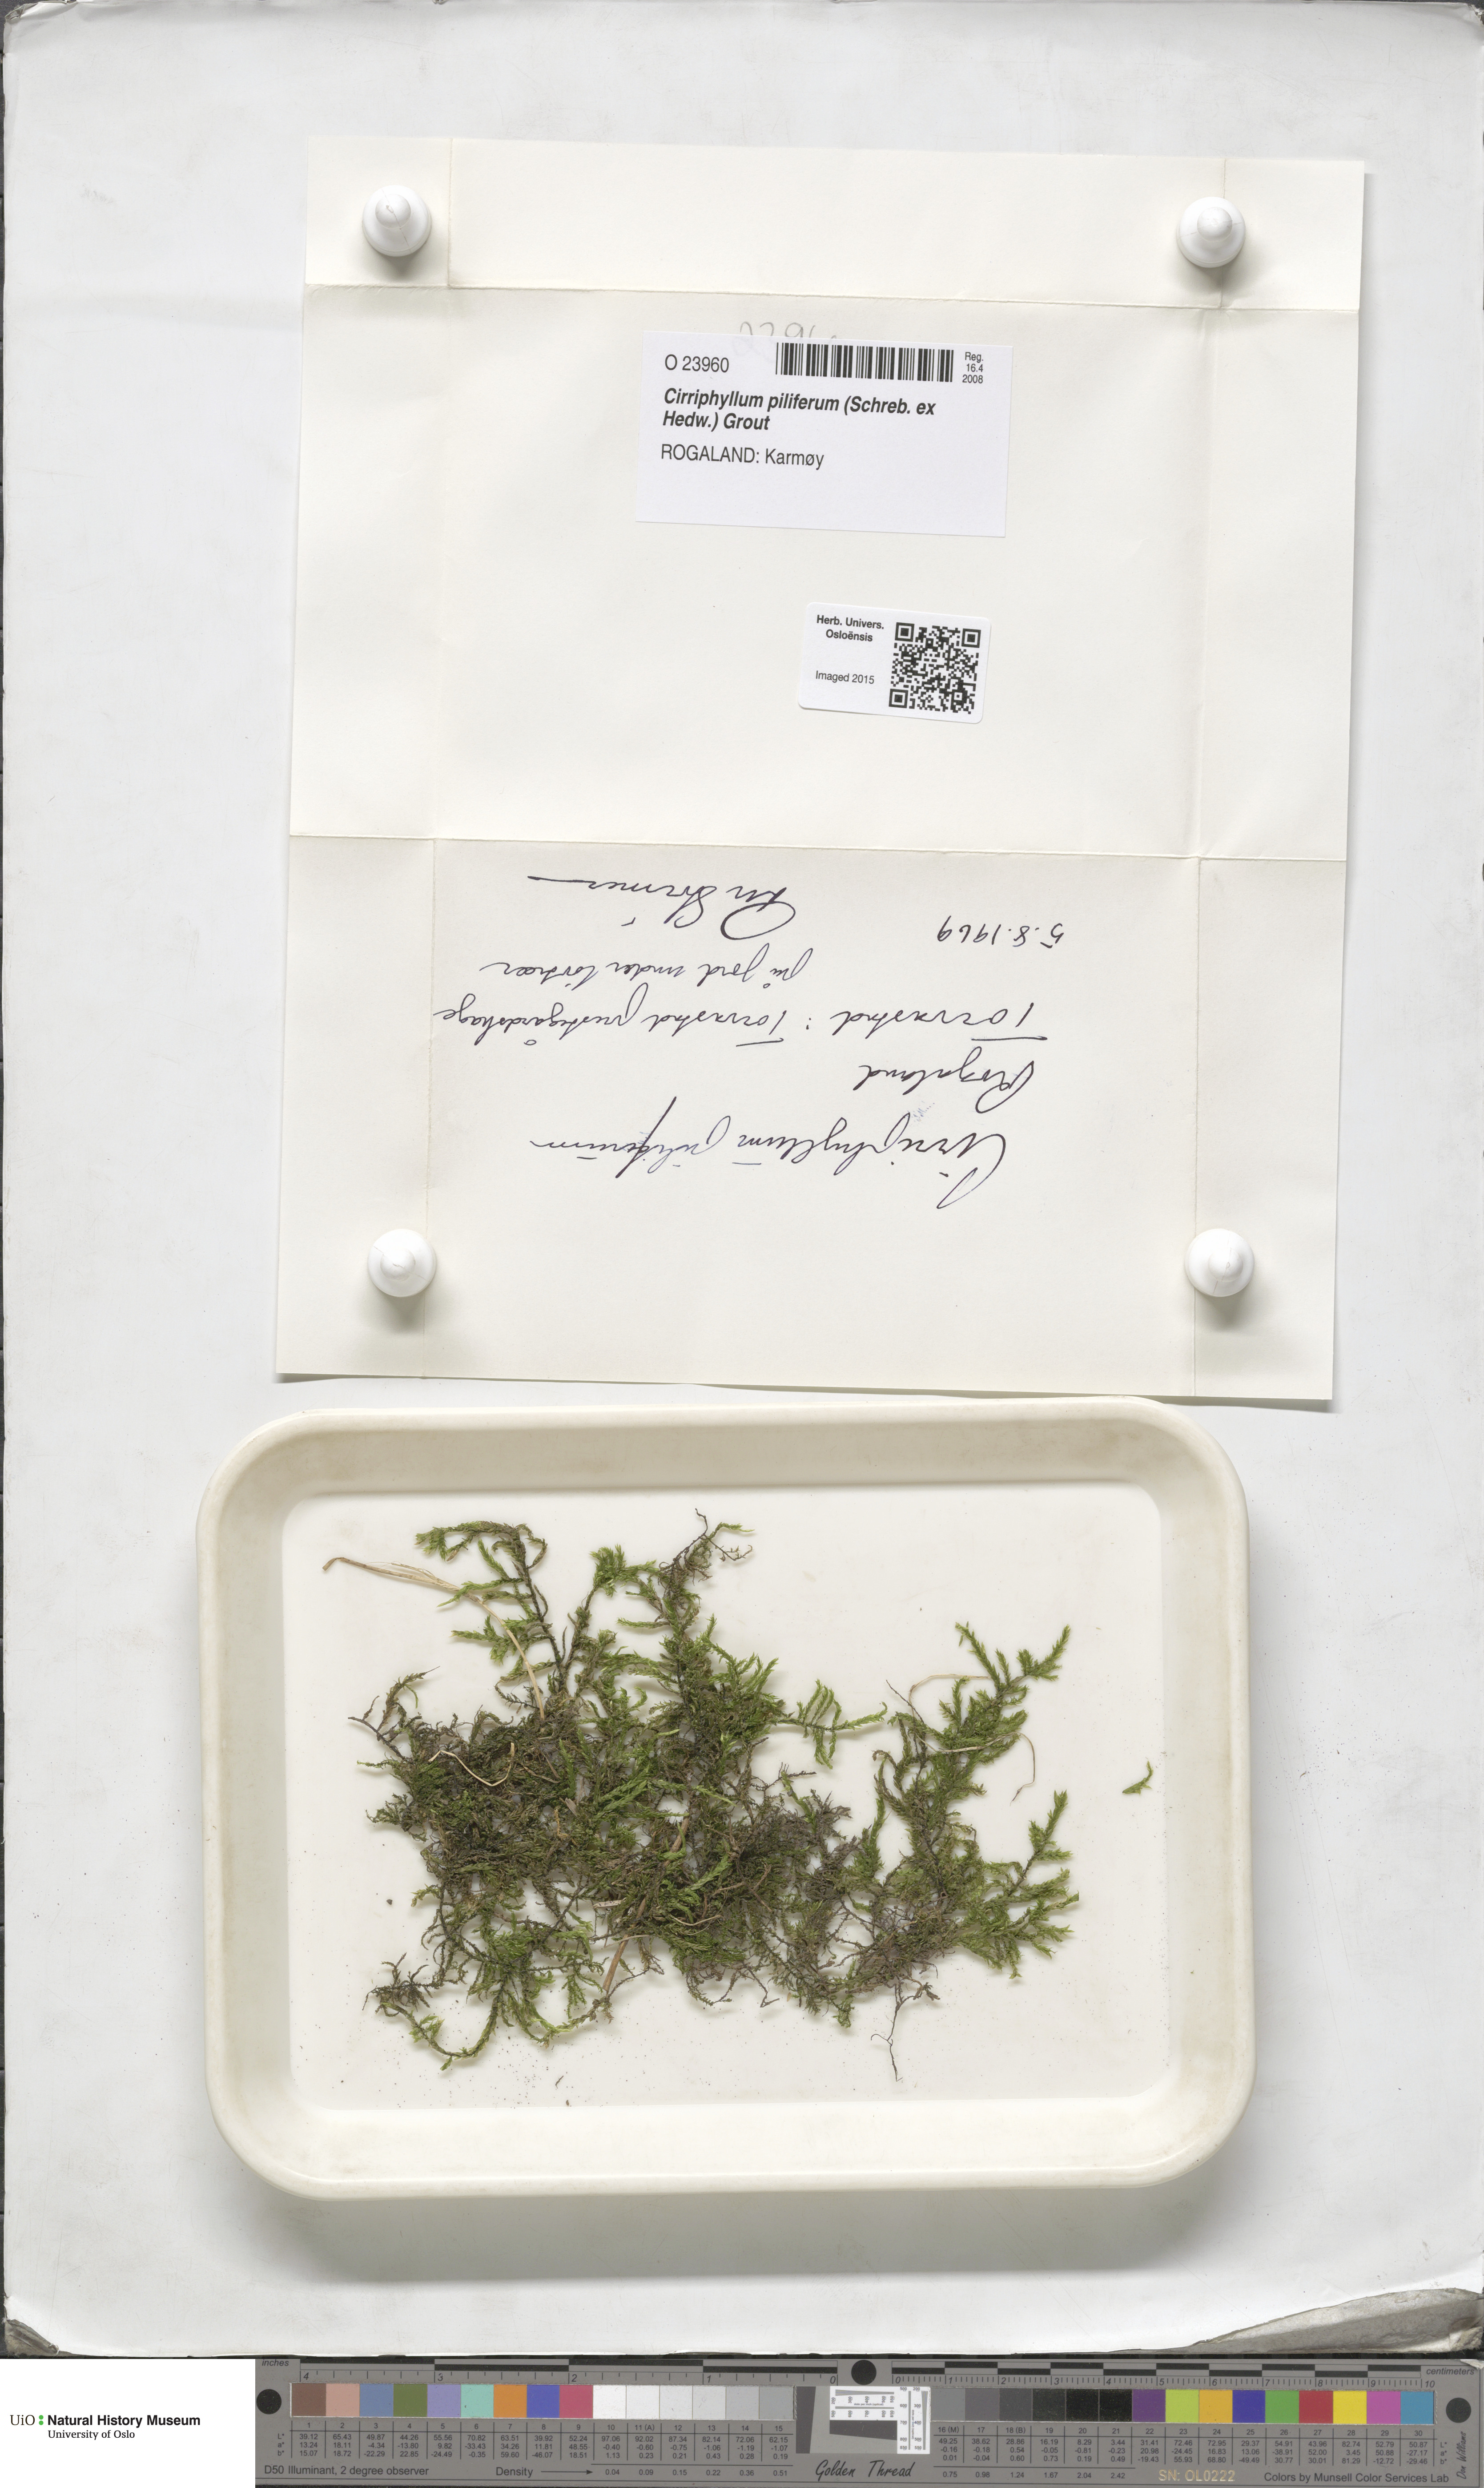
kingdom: Plantae
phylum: Bryophyta
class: Bryopsida
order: Hypnales
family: Brachytheciaceae
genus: Cirriphyllum
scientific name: Cirriphyllum piliferum
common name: Hair-pointed moss
